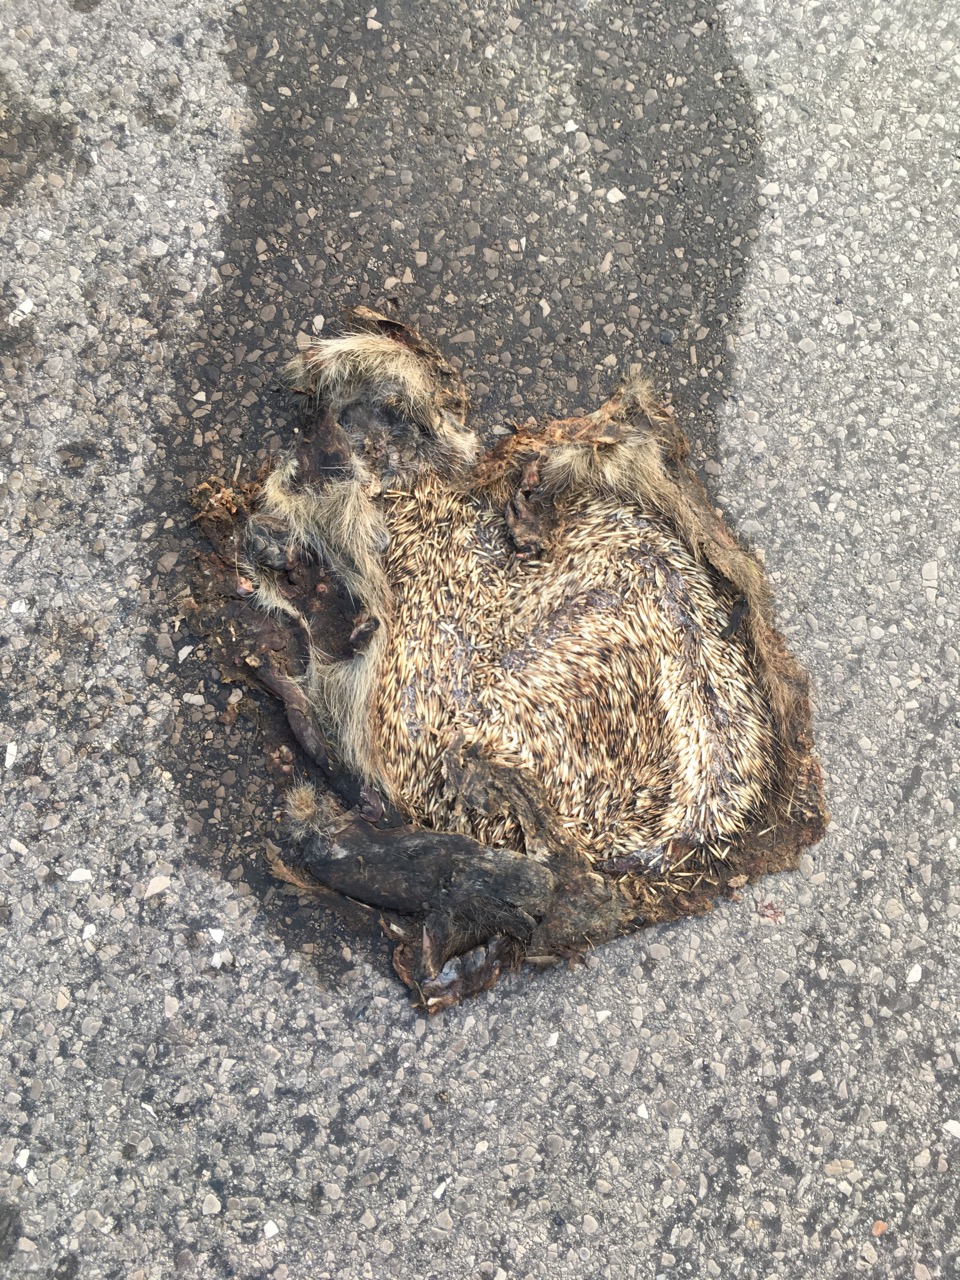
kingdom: Animalia
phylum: Chordata
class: Mammalia
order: Erinaceomorpha
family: Erinaceidae
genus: Erinaceus
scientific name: Erinaceus
